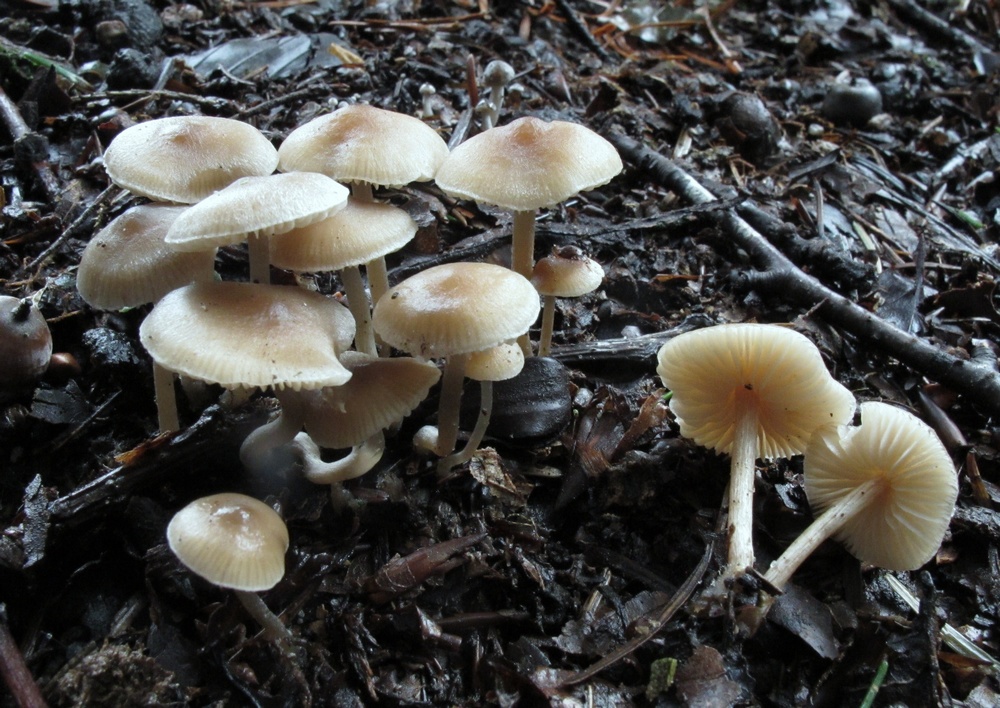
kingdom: Fungi
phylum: Basidiomycota
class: Agaricomycetes
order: Agaricales
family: Inocybaceae
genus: Inocybe
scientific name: Inocybe petiginosa
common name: liden trævlhat
